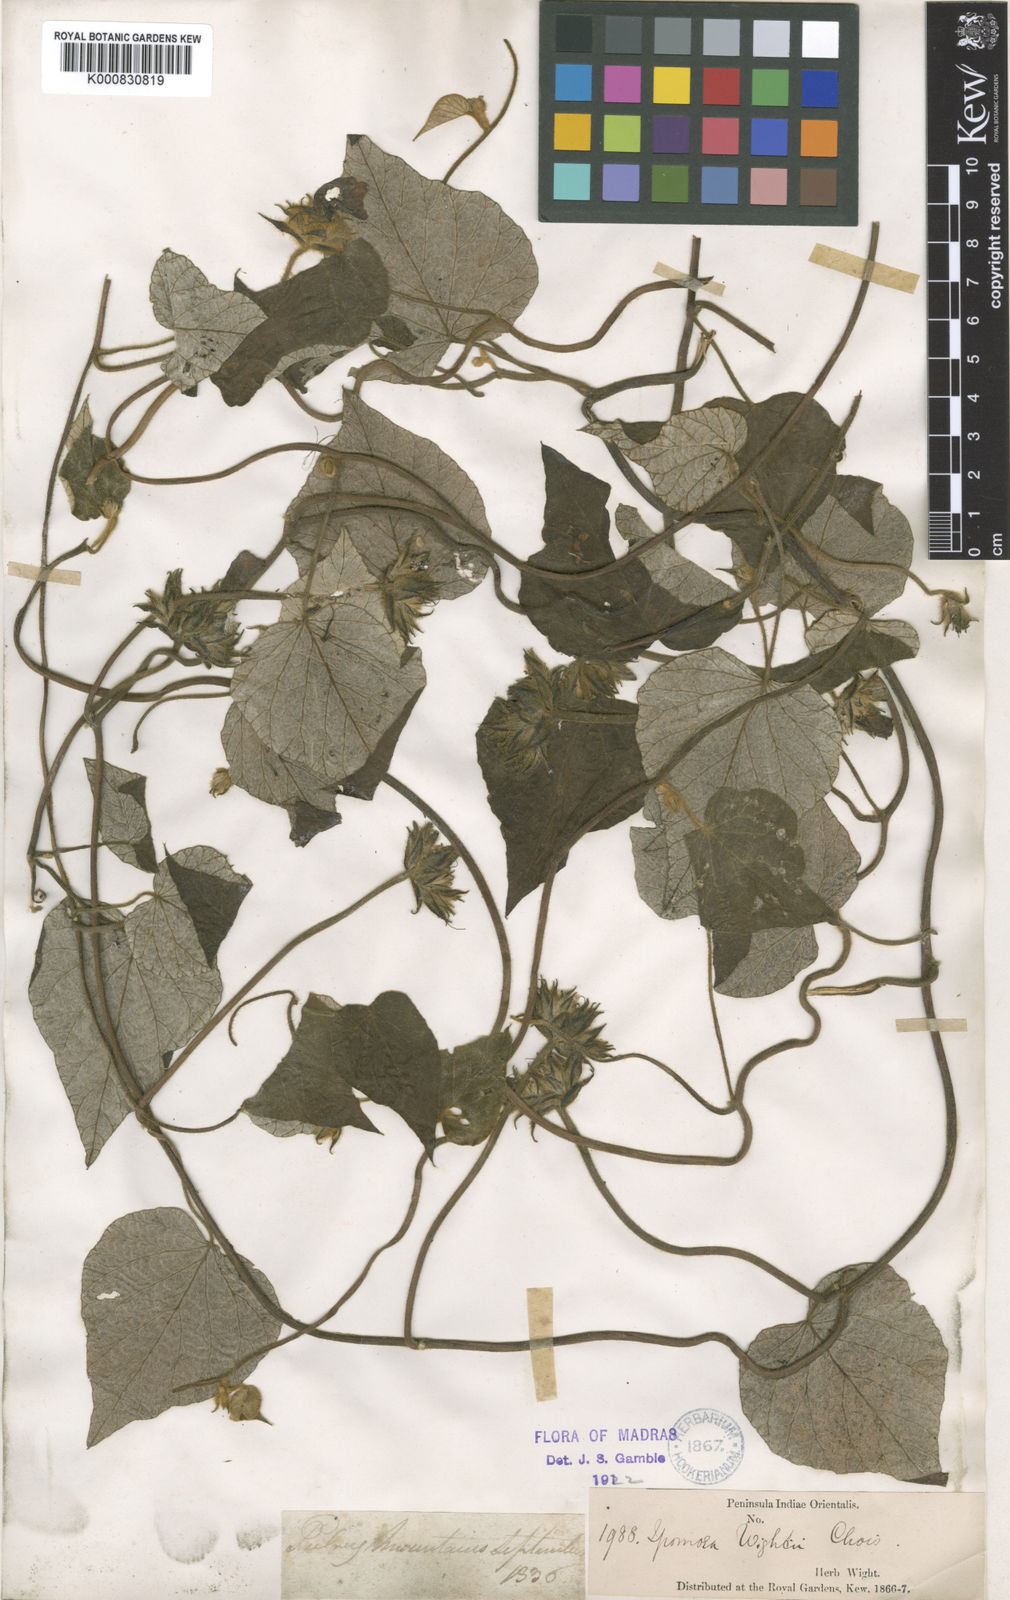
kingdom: Plantae
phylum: Tracheophyta
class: Magnoliopsida
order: Solanales
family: Convolvulaceae
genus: Ipomoea
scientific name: Ipomoea wightii
